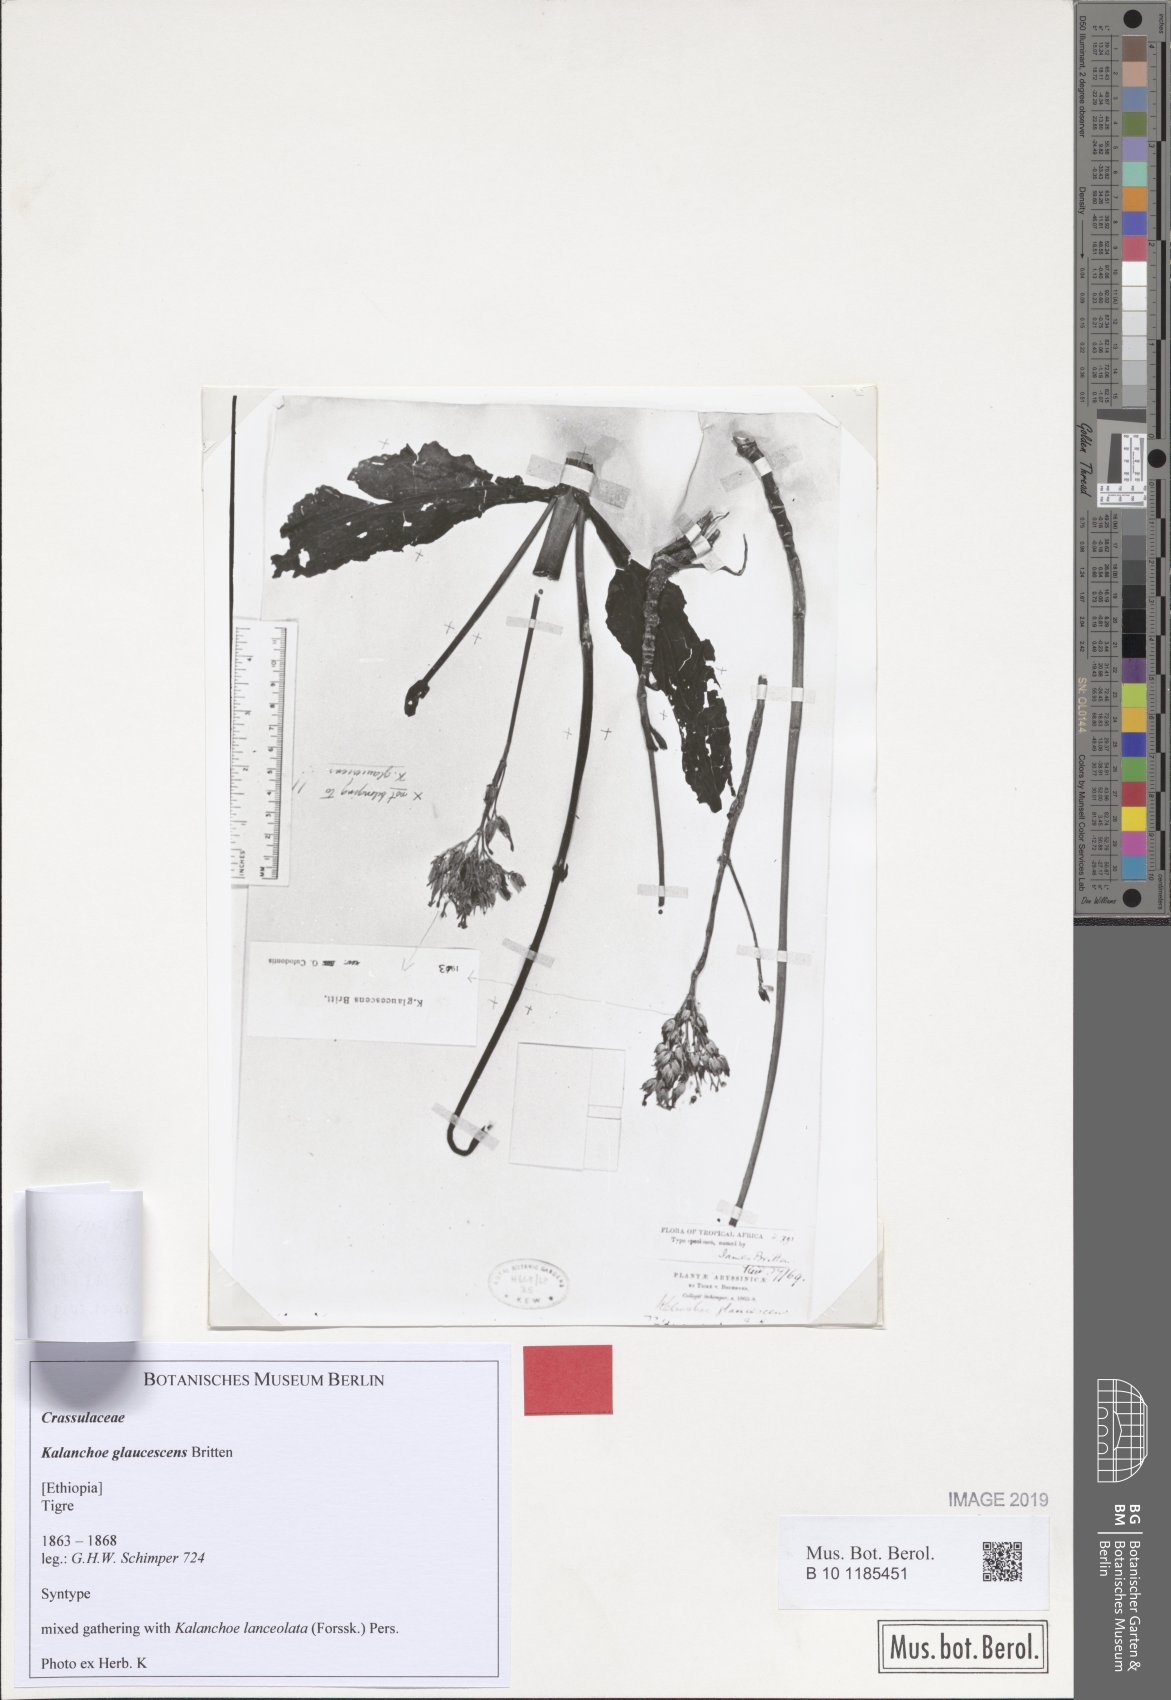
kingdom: Plantae
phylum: Tracheophyta
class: Magnoliopsida
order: Saxifragales
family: Crassulaceae
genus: Kalanchoe
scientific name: Kalanchoe lanceolata
